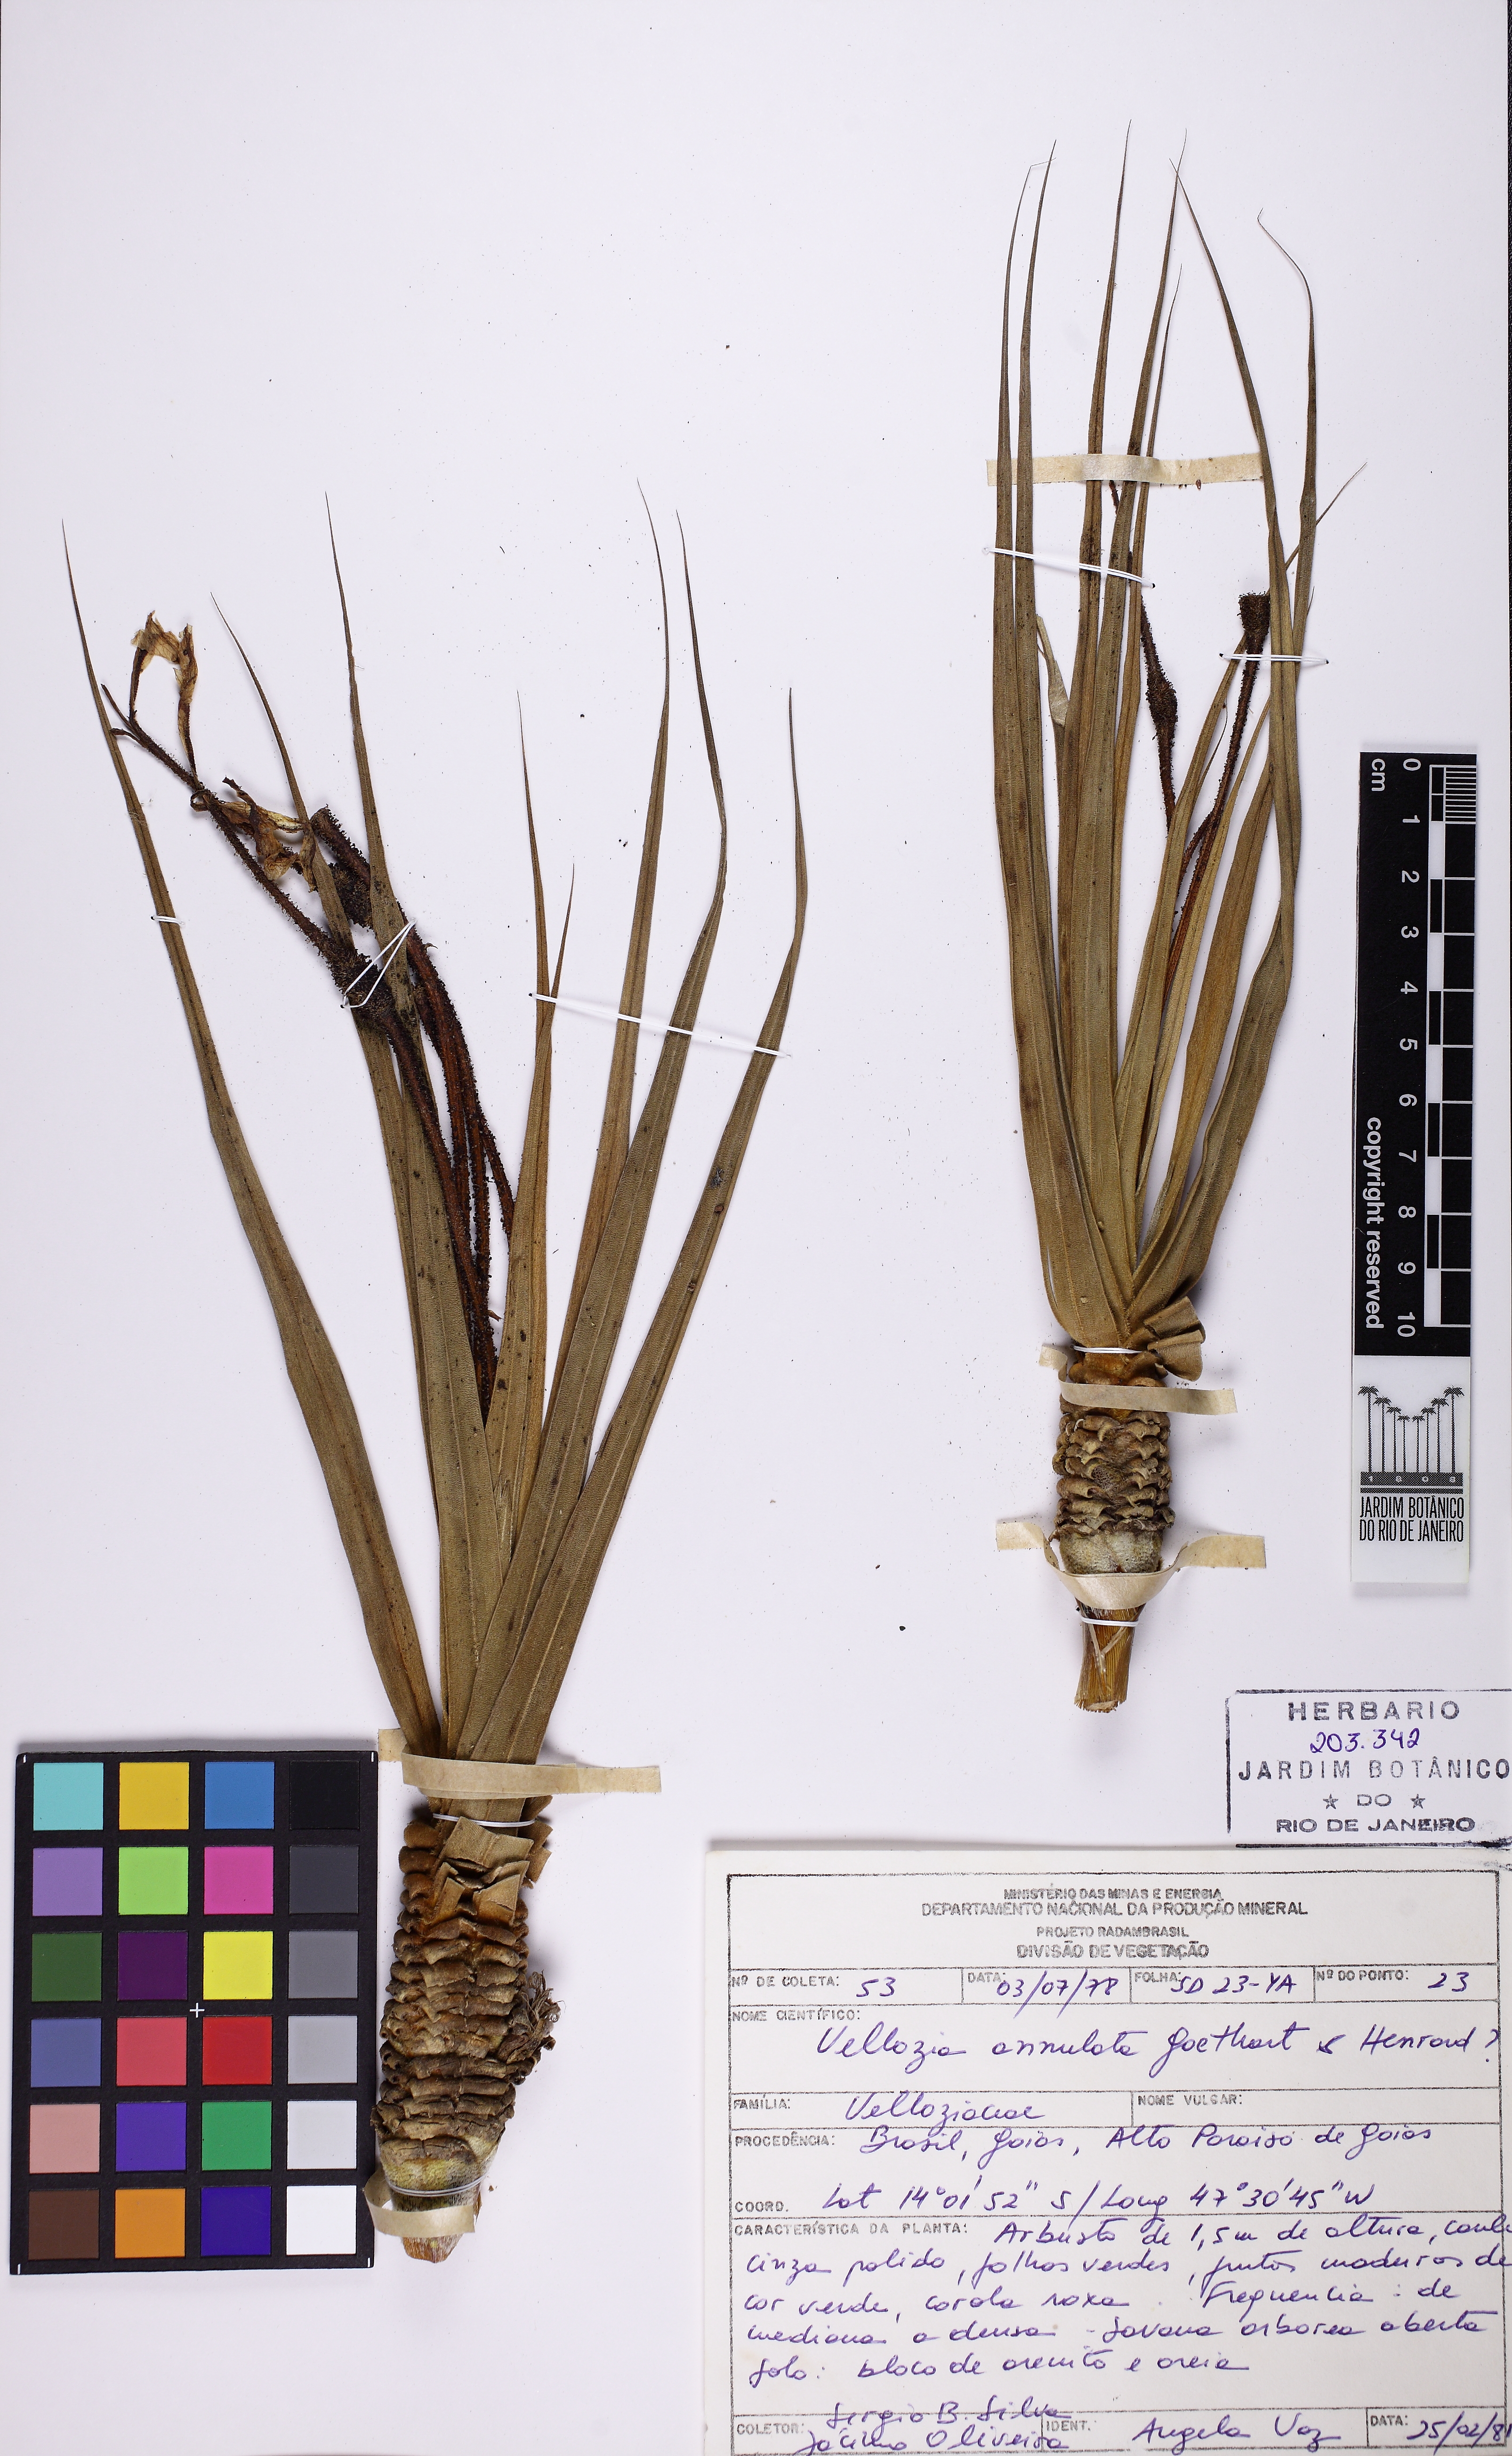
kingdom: Plantae
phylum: Tracheophyta
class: Liliopsida
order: Pandanales
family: Velloziaceae
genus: Vellozia
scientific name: Vellozia tubiflora
